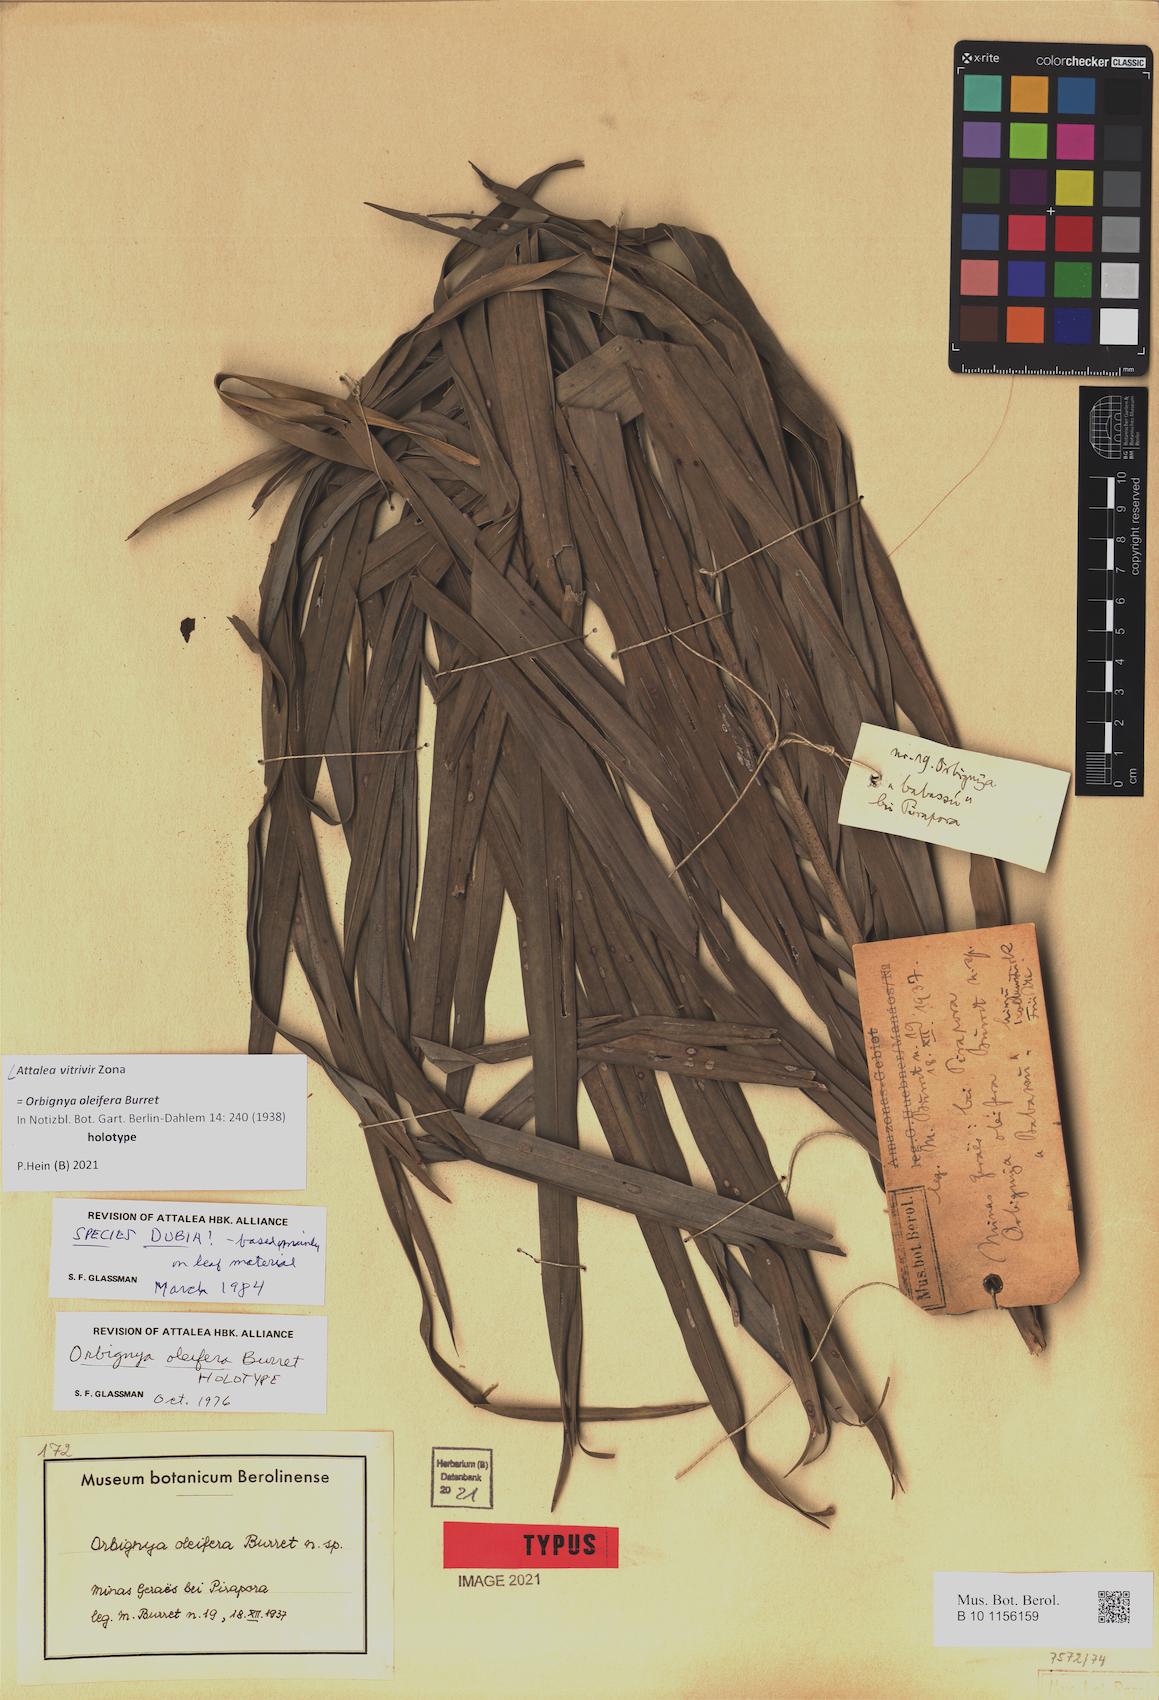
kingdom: Plantae
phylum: Tracheophyta
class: Liliopsida
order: Arecales
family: Arecaceae
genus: Attalea
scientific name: Attalea vitrivir
